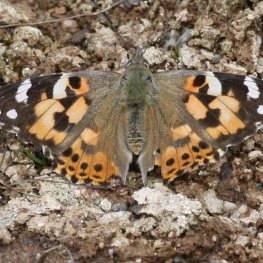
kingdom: Animalia
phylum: Arthropoda
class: Insecta
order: Lepidoptera
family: Nymphalidae
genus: Vanessa
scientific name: Vanessa cardui
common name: Painted Lady
